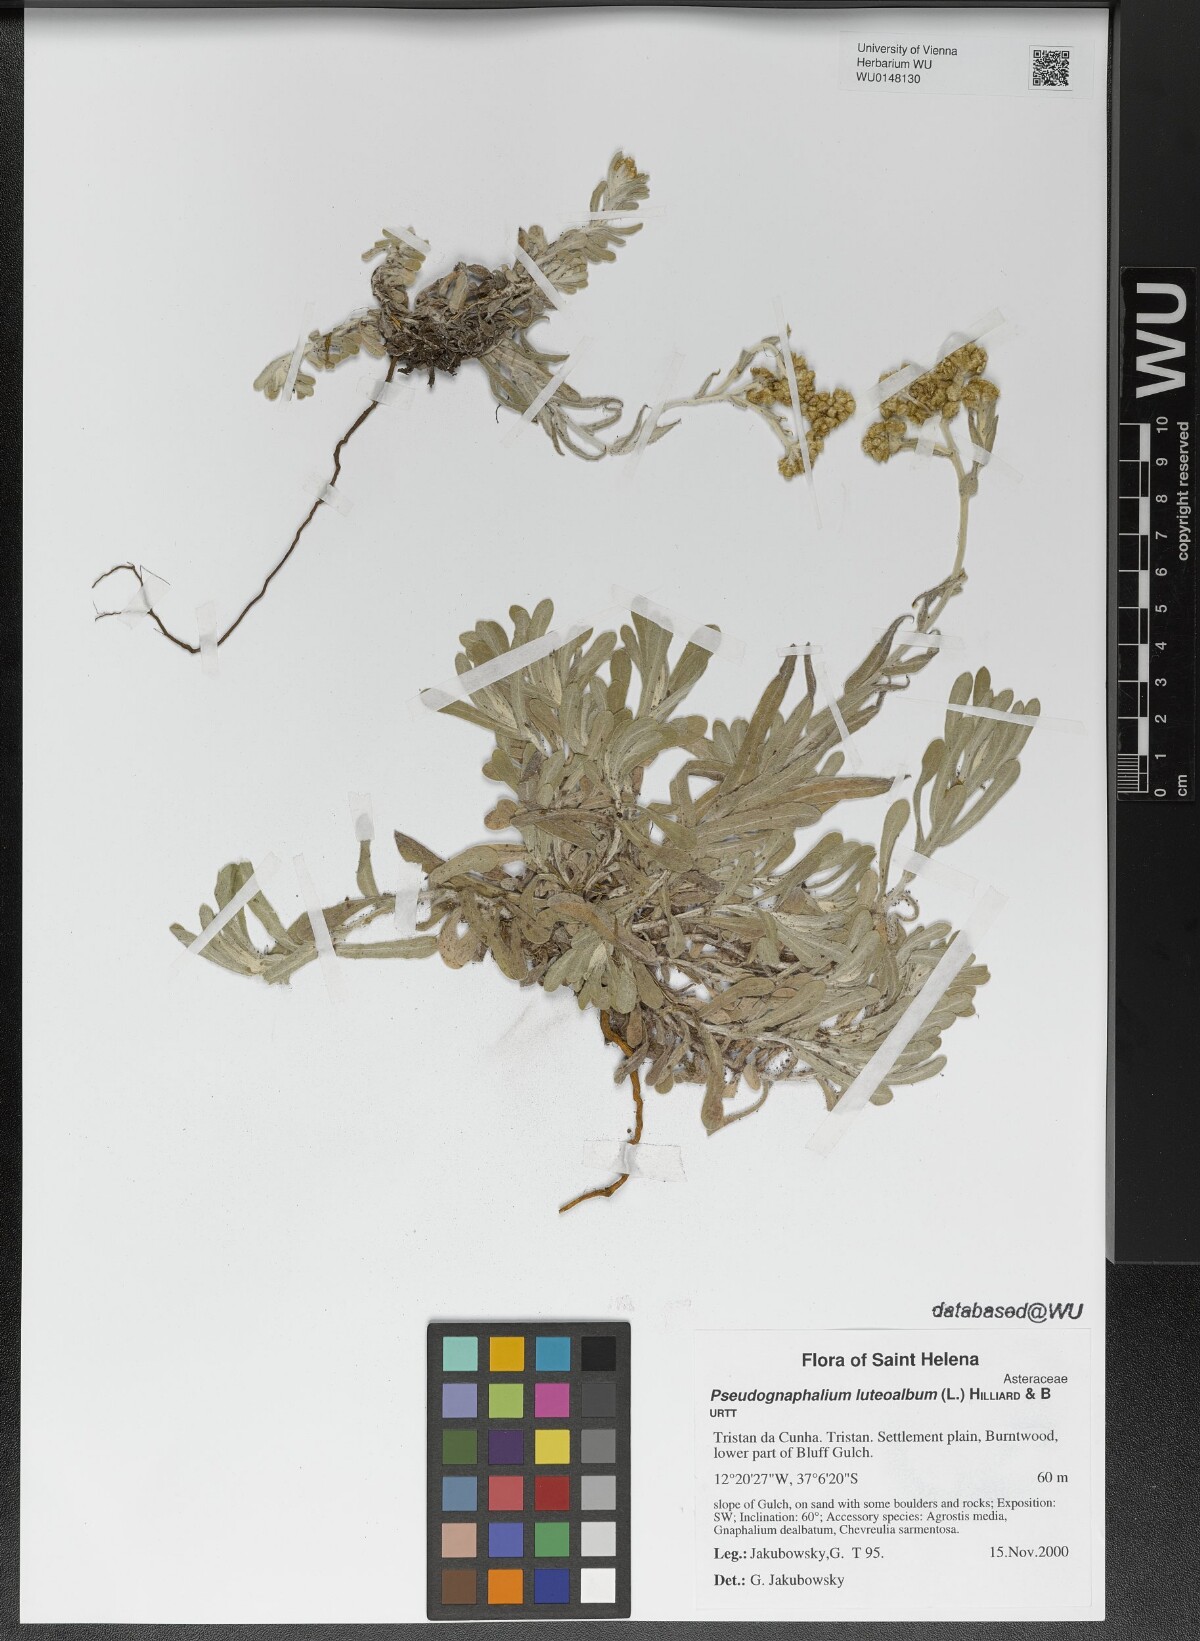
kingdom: Plantae
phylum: Tracheophyta
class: Magnoliopsida
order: Asterales
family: Asteraceae
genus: Helichrysum
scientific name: Helichrysum luteoalbum
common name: Daisy
